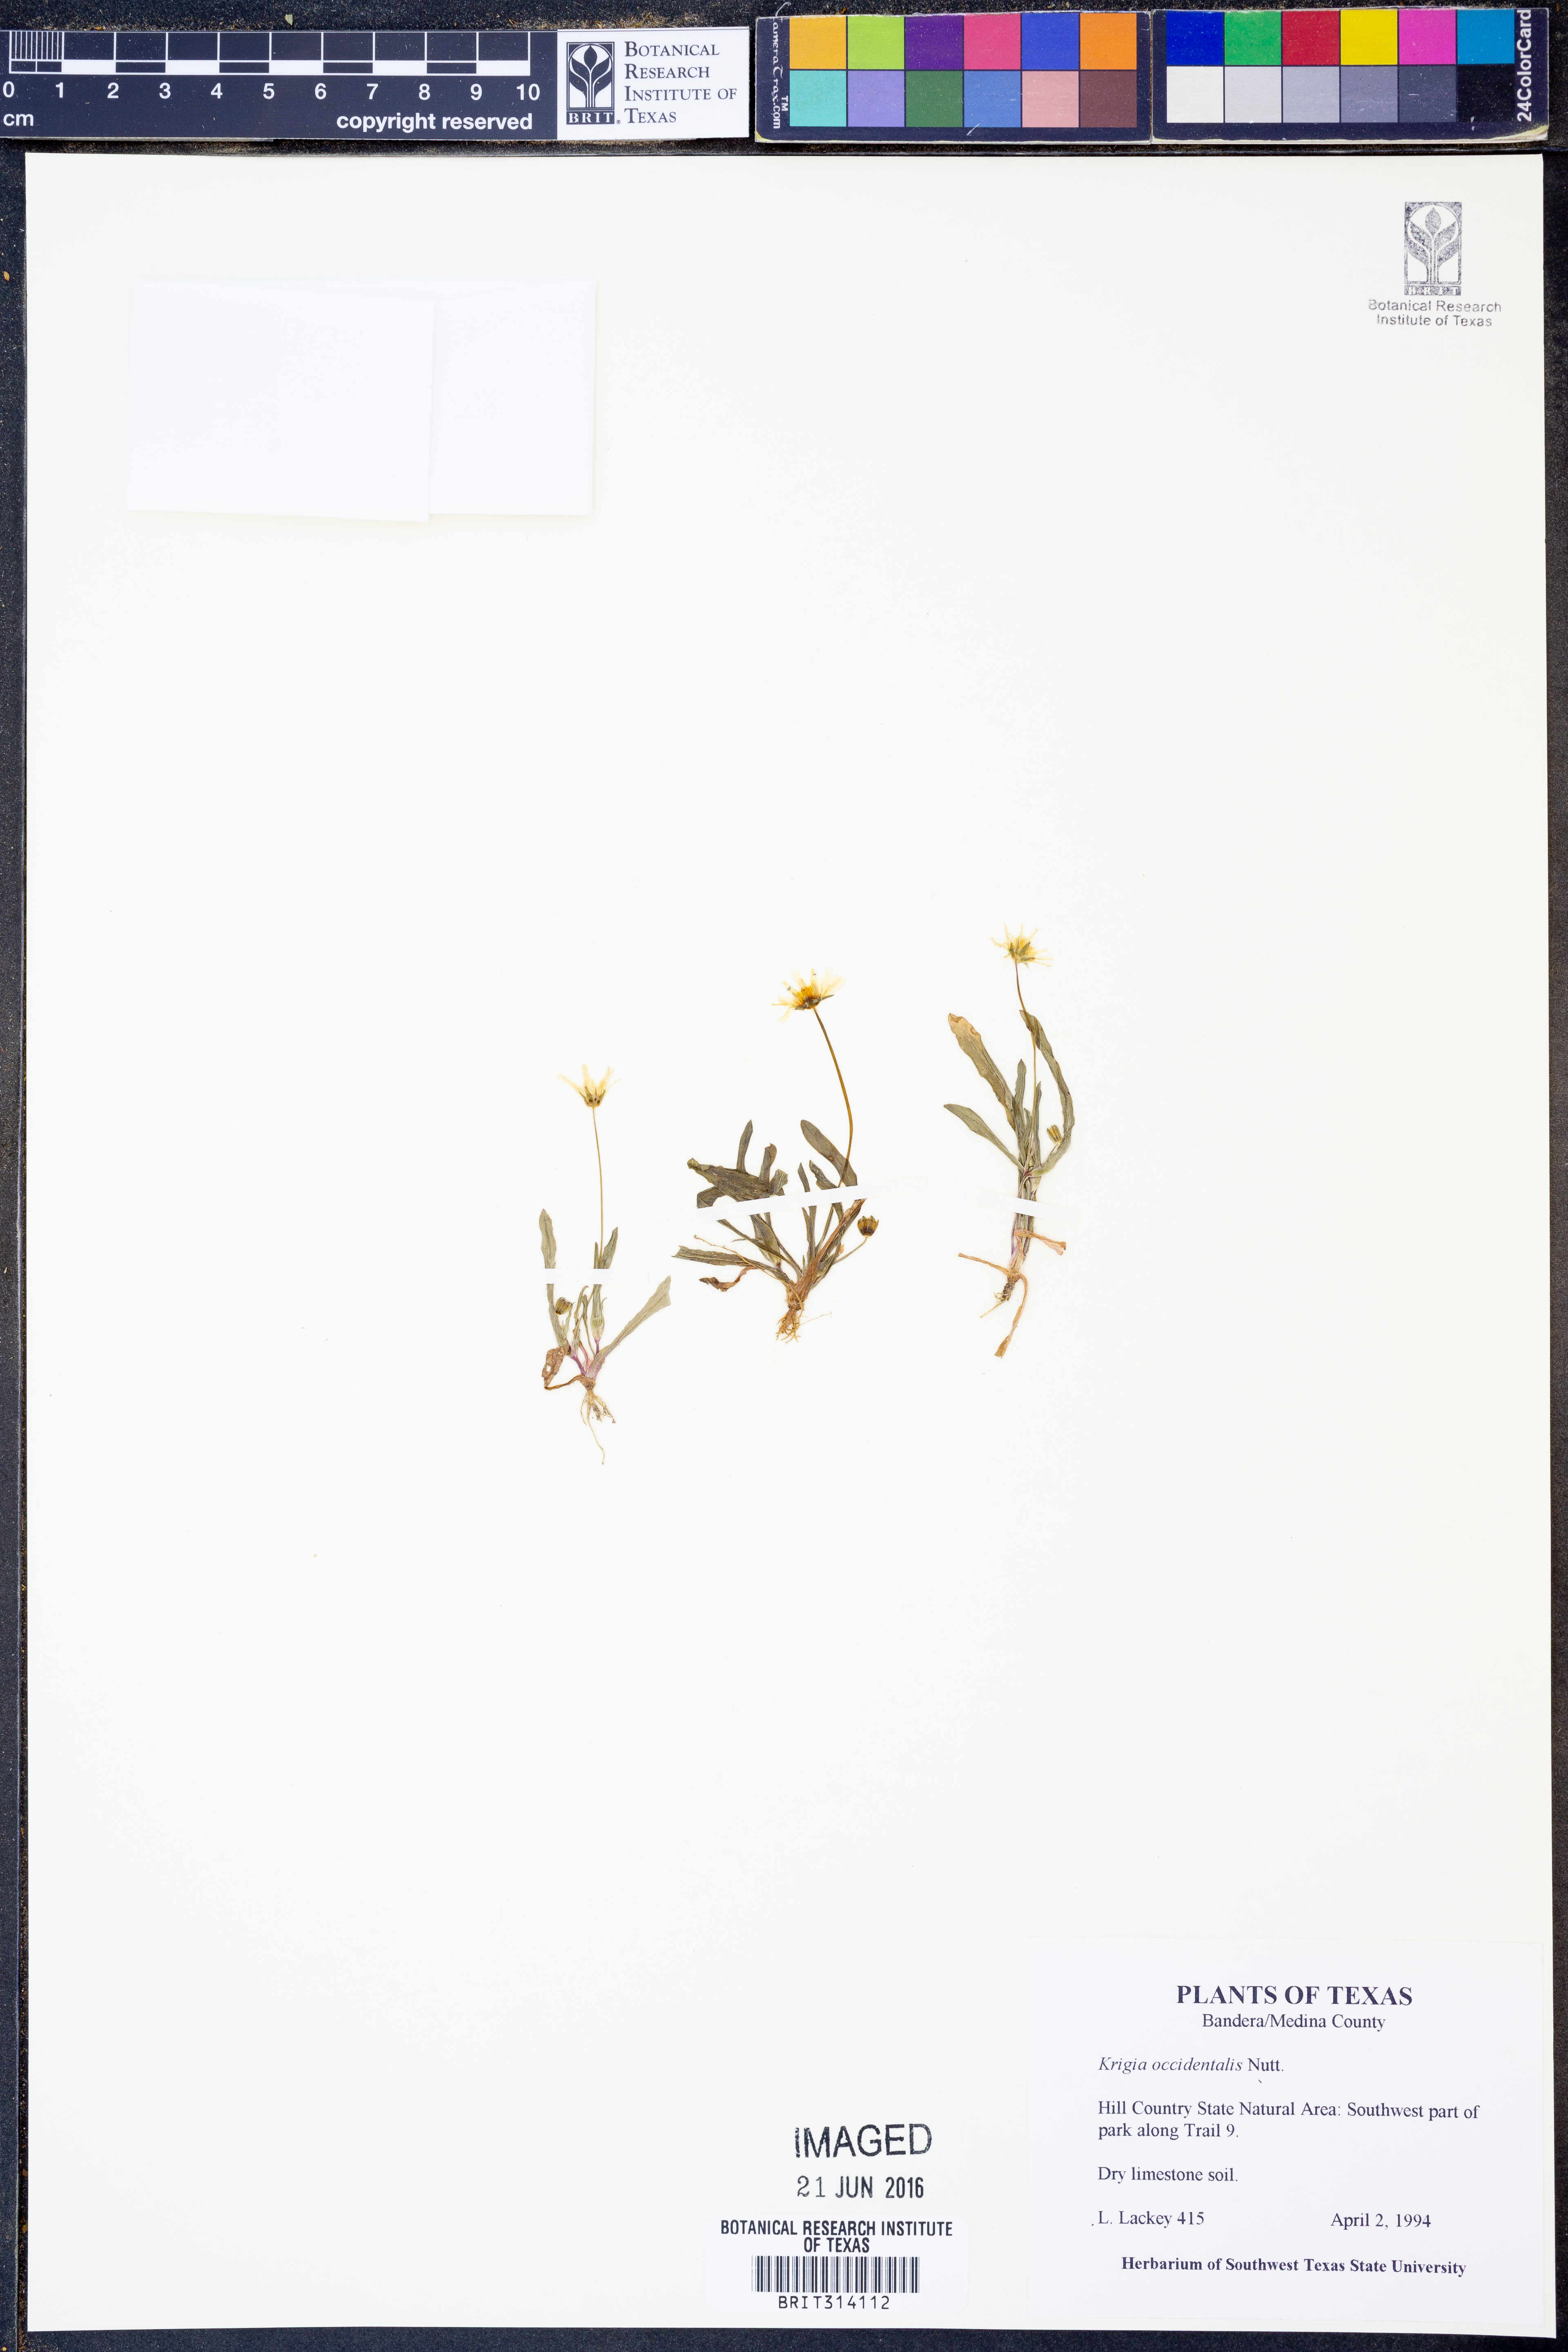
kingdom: Plantae
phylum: Tracheophyta
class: Magnoliopsida
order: Asterales
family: Asteraceae
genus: Krigia
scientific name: Krigia occidentalis
